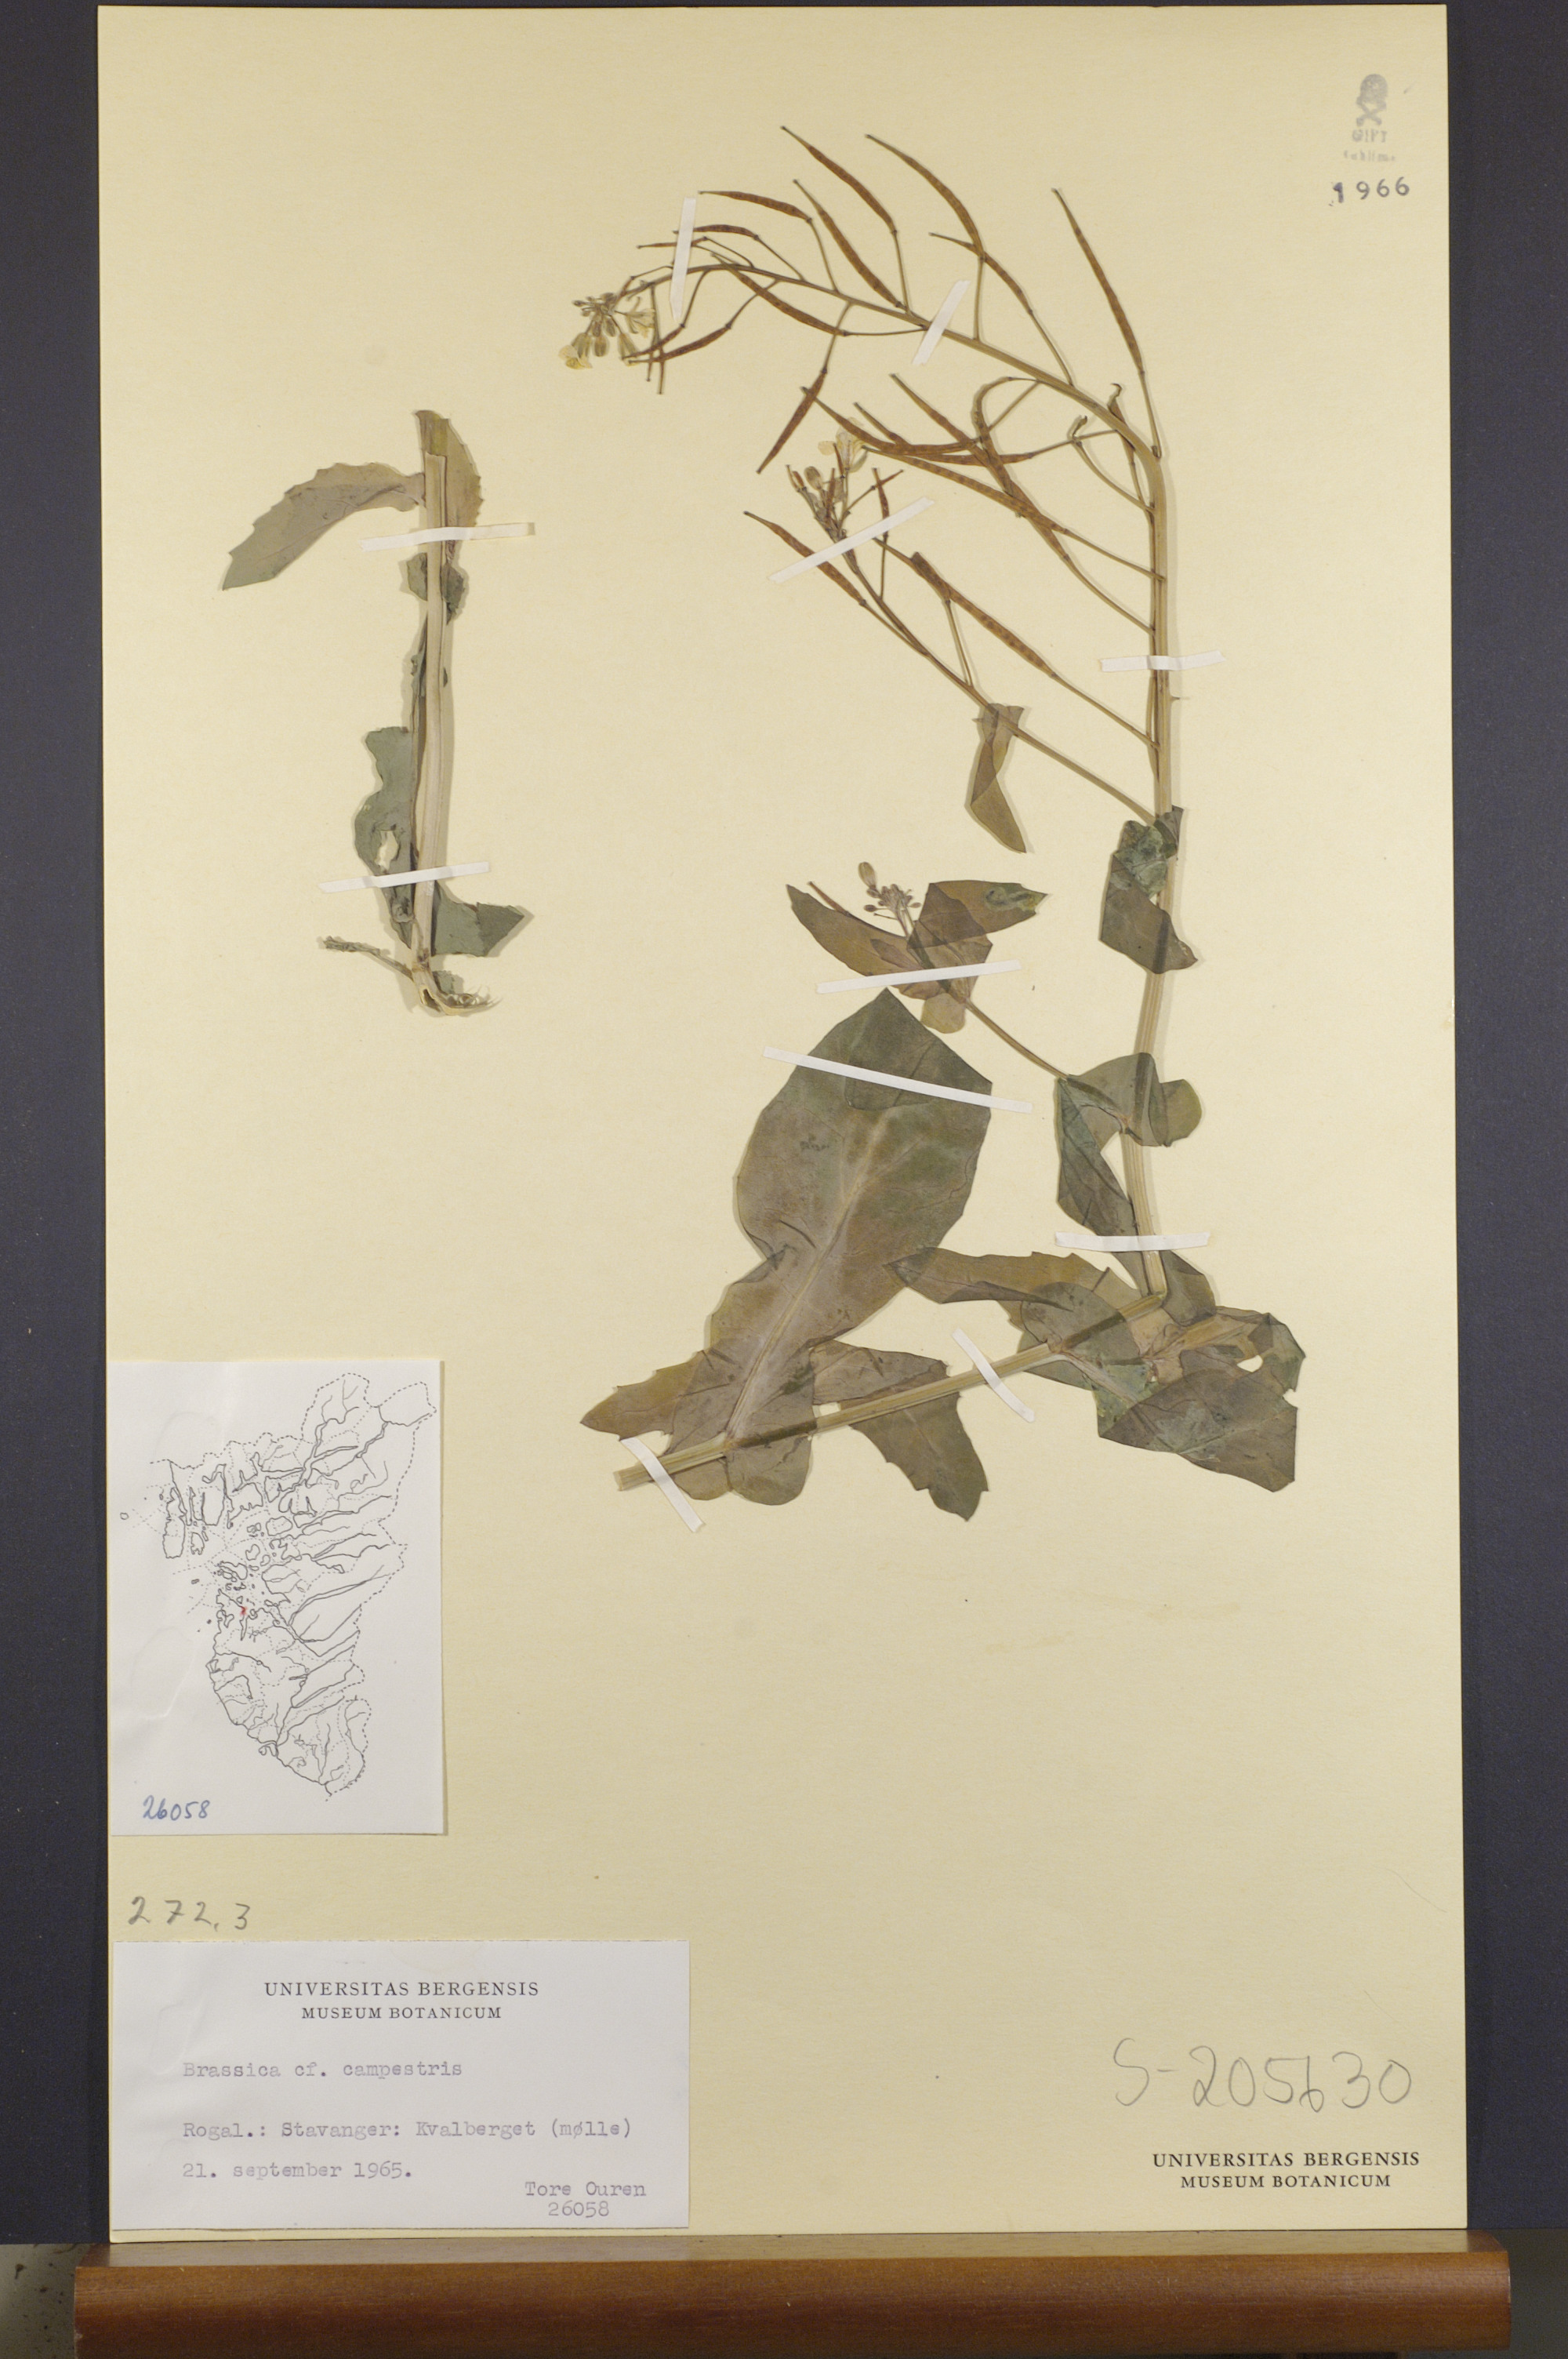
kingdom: Plantae
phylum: Tracheophyta
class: Magnoliopsida
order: Brassicales
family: Brassicaceae
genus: Brassica
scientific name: Brassica rapa
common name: Field mustard
